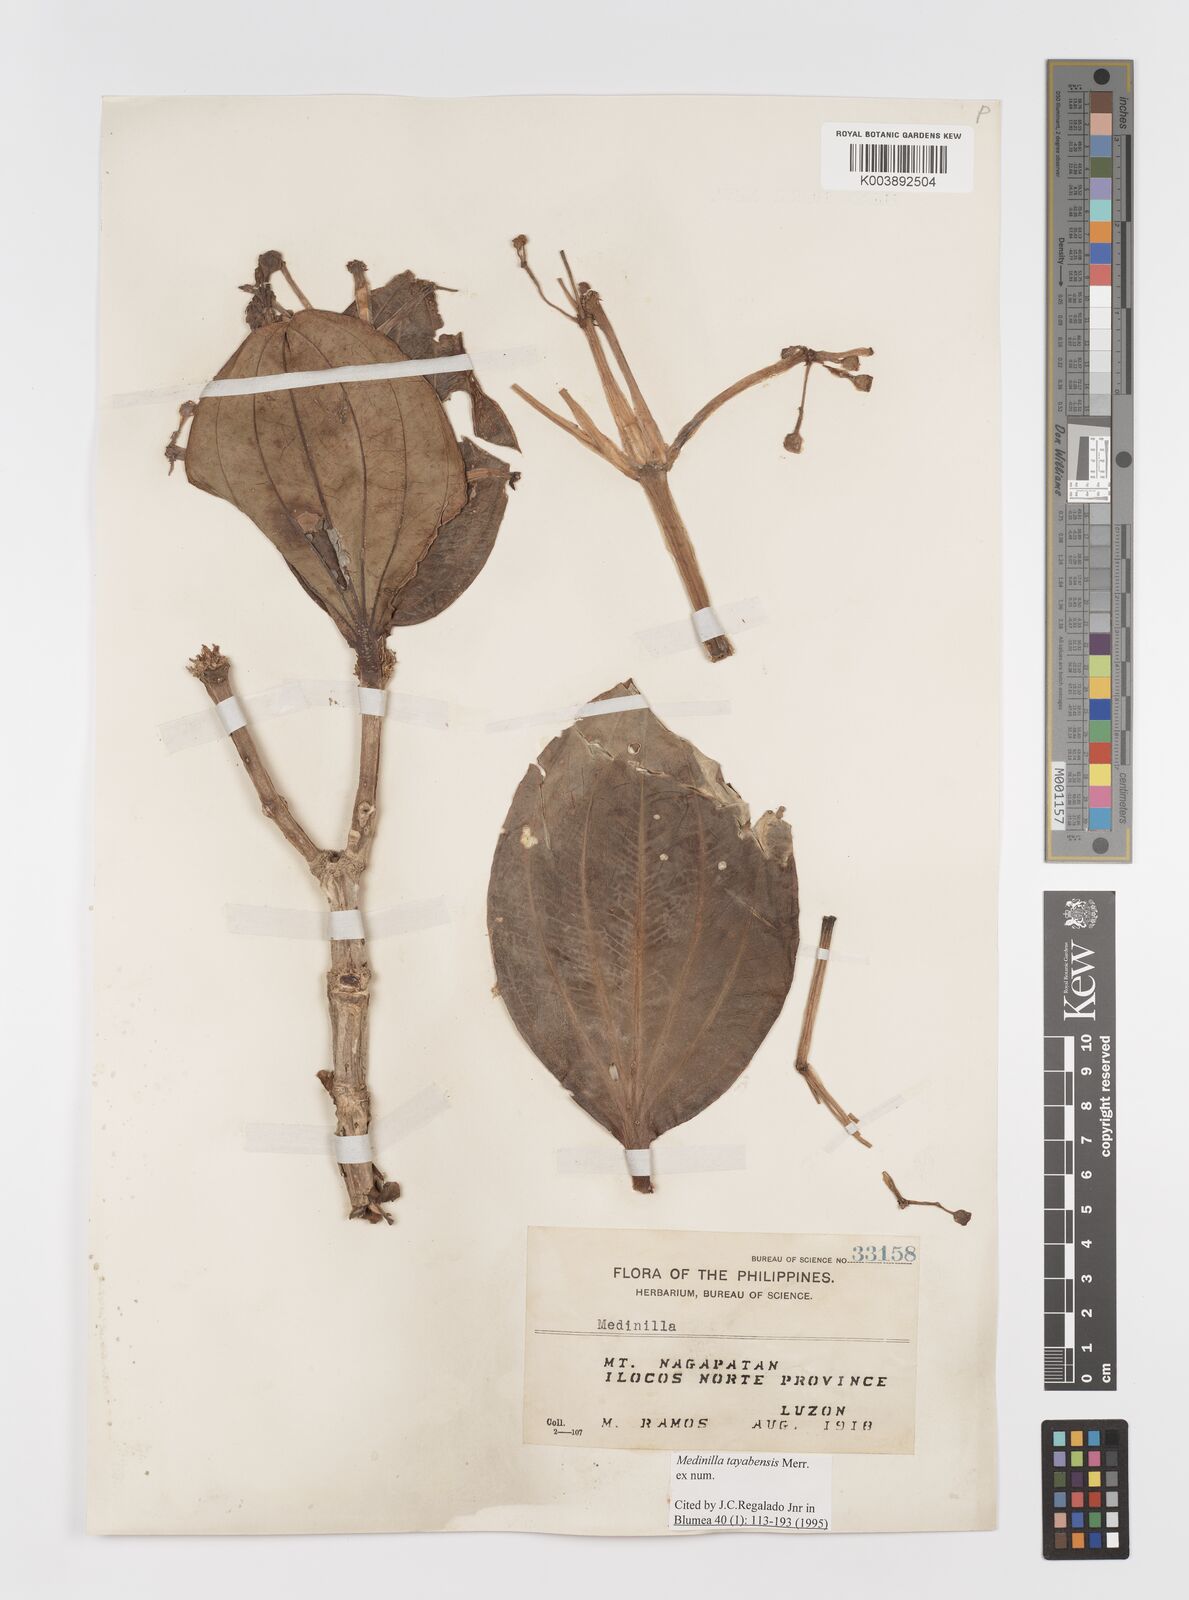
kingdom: Plantae
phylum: Tracheophyta
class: Magnoliopsida
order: Myrtales
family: Melastomataceae
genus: Medinilla
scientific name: Medinilla tayabensis
